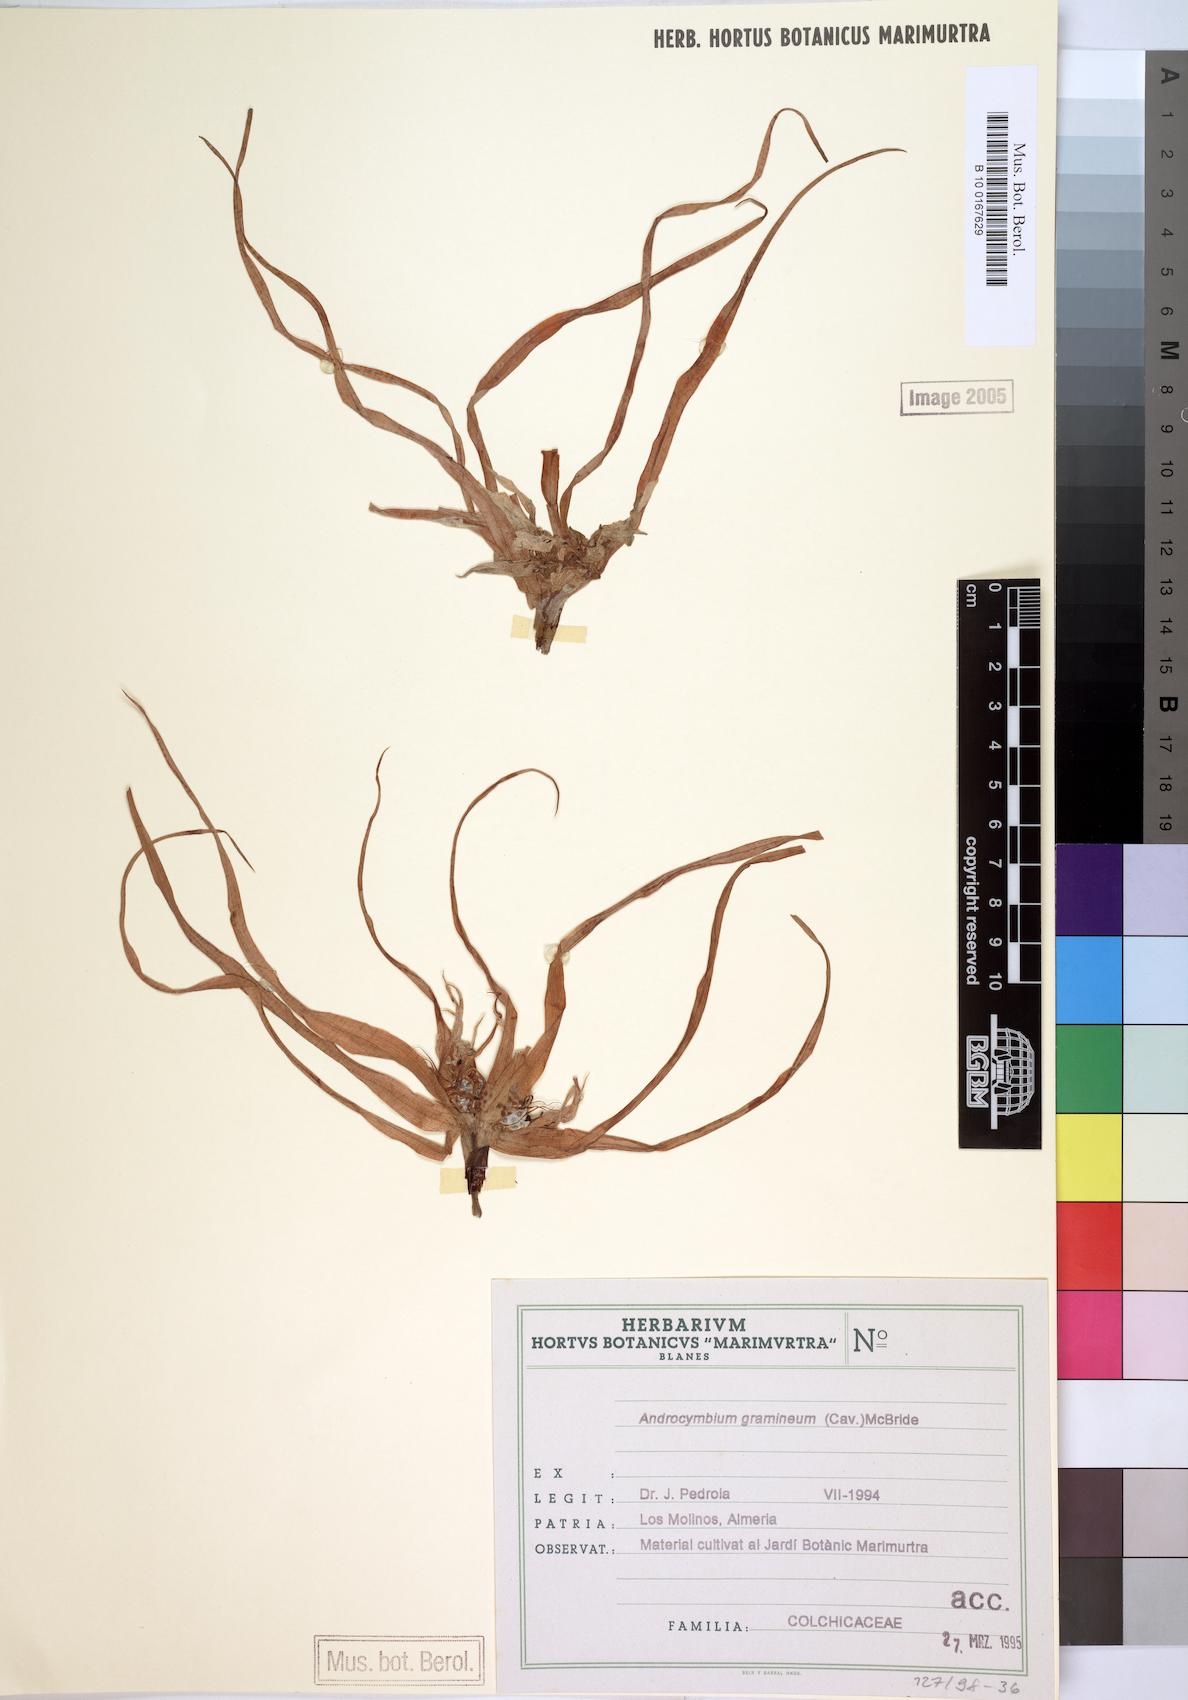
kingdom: Plantae
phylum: Tracheophyta
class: Liliopsida
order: Liliales
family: Colchicaceae
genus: Colchicum
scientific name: Colchicum gramineum
